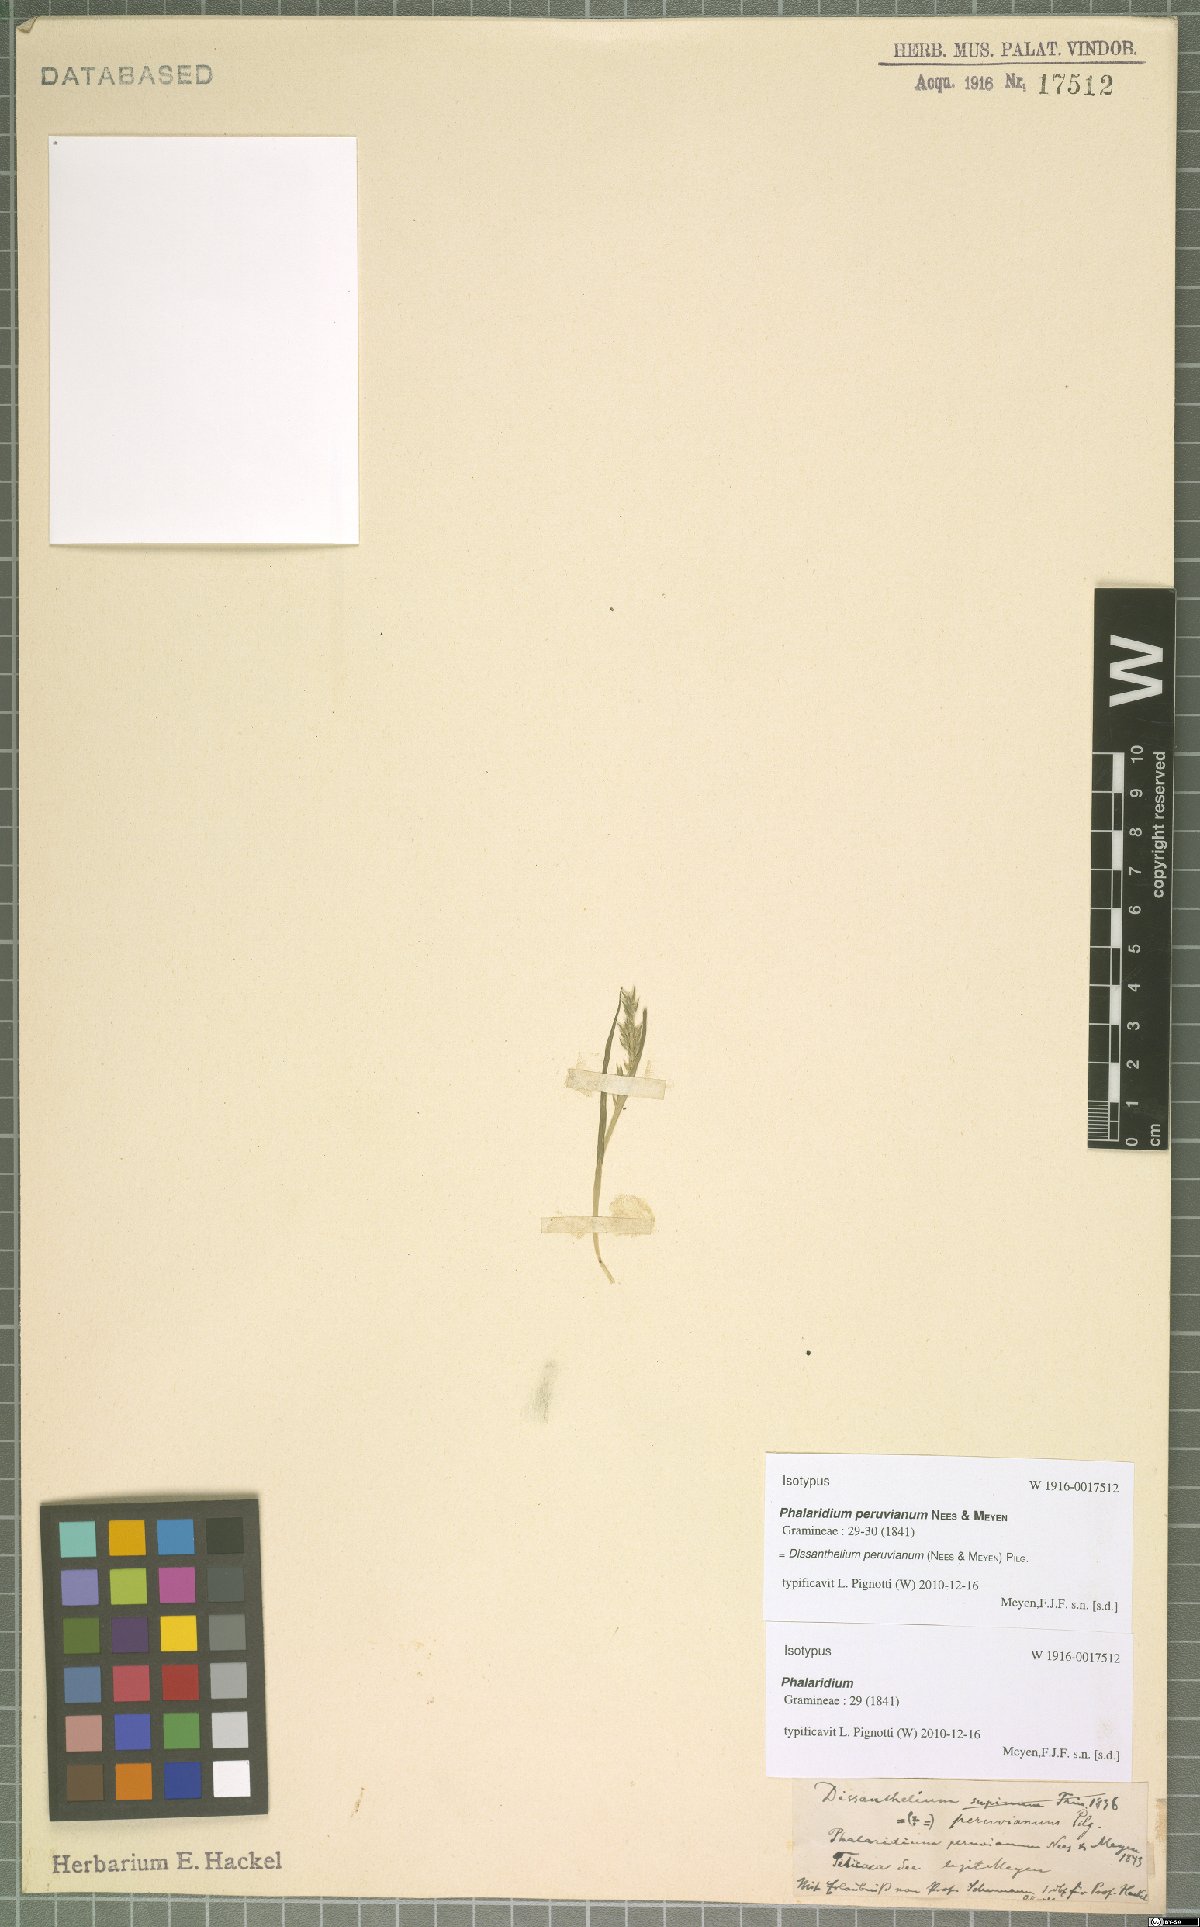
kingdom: Plantae
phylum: Tracheophyta
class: Liliopsida
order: Poales
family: Poaceae
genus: Poa
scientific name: Poa serpana
